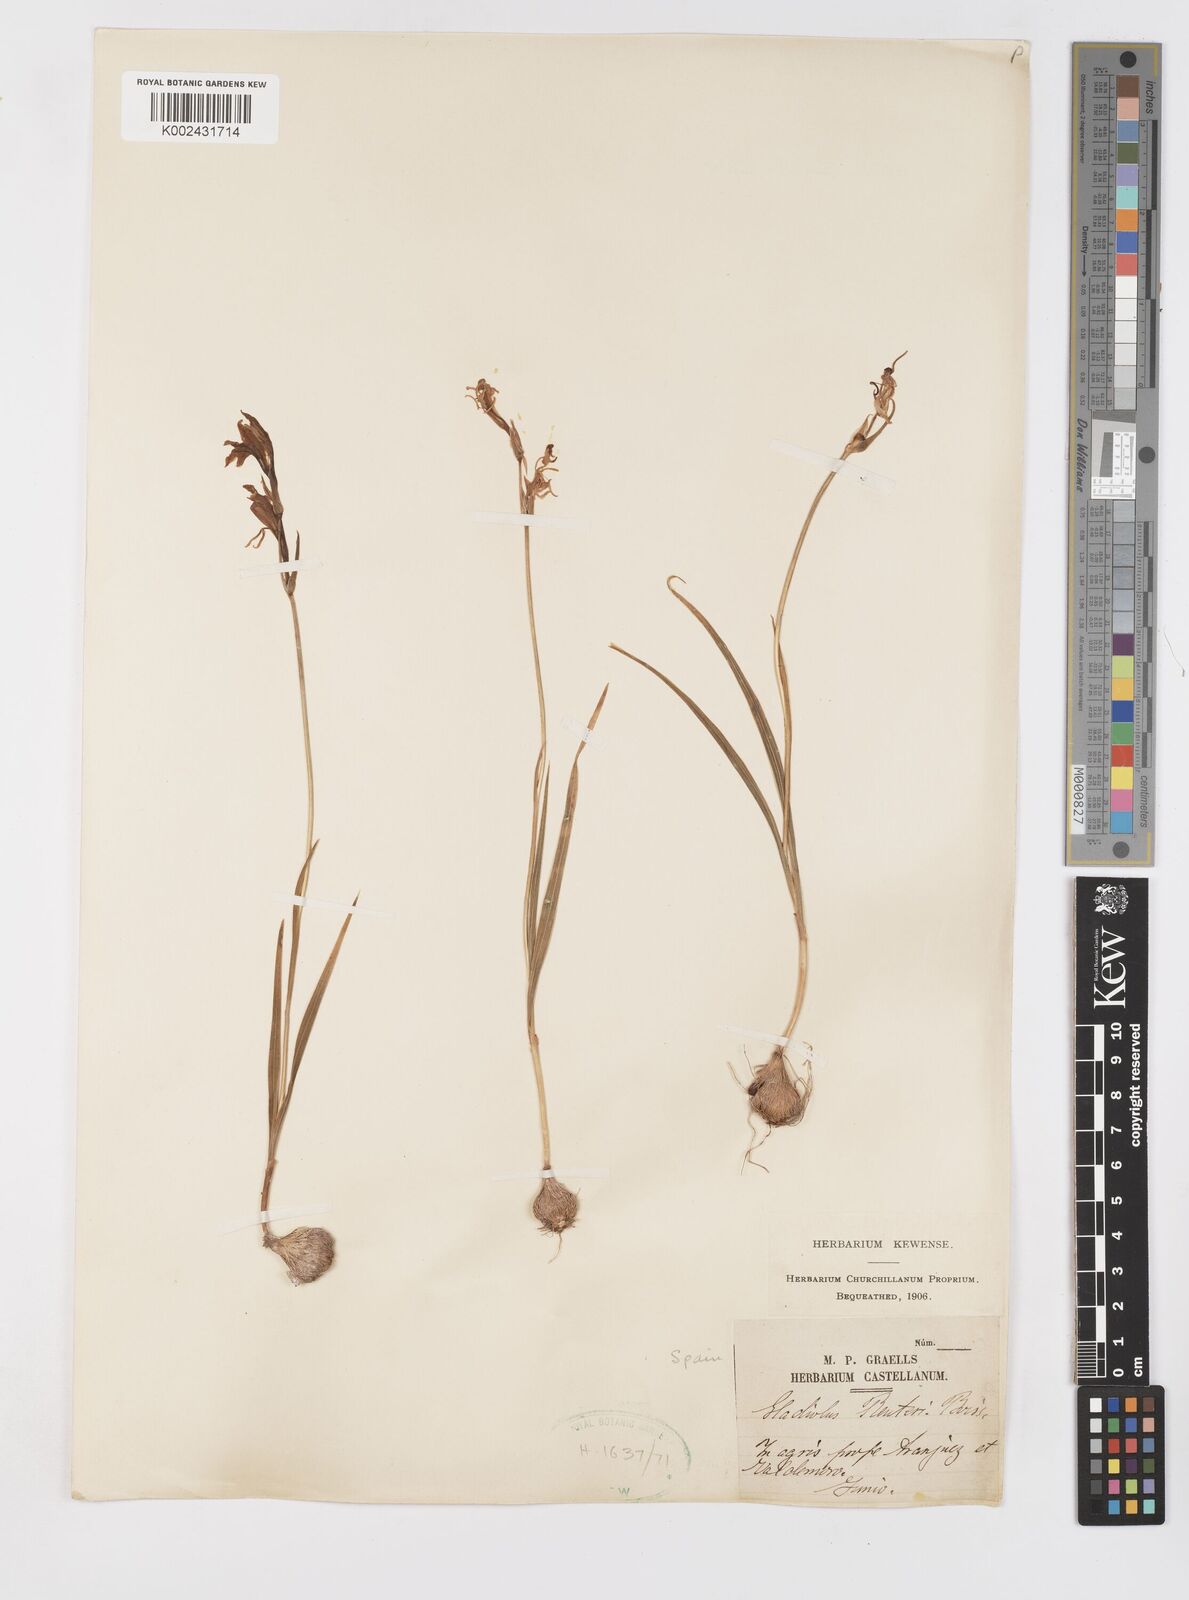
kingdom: Plantae
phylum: Tracheophyta
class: Liliopsida
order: Asparagales
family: Iridaceae
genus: Gladiolus
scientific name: Gladiolus illyricus
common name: Wild gladiolus
